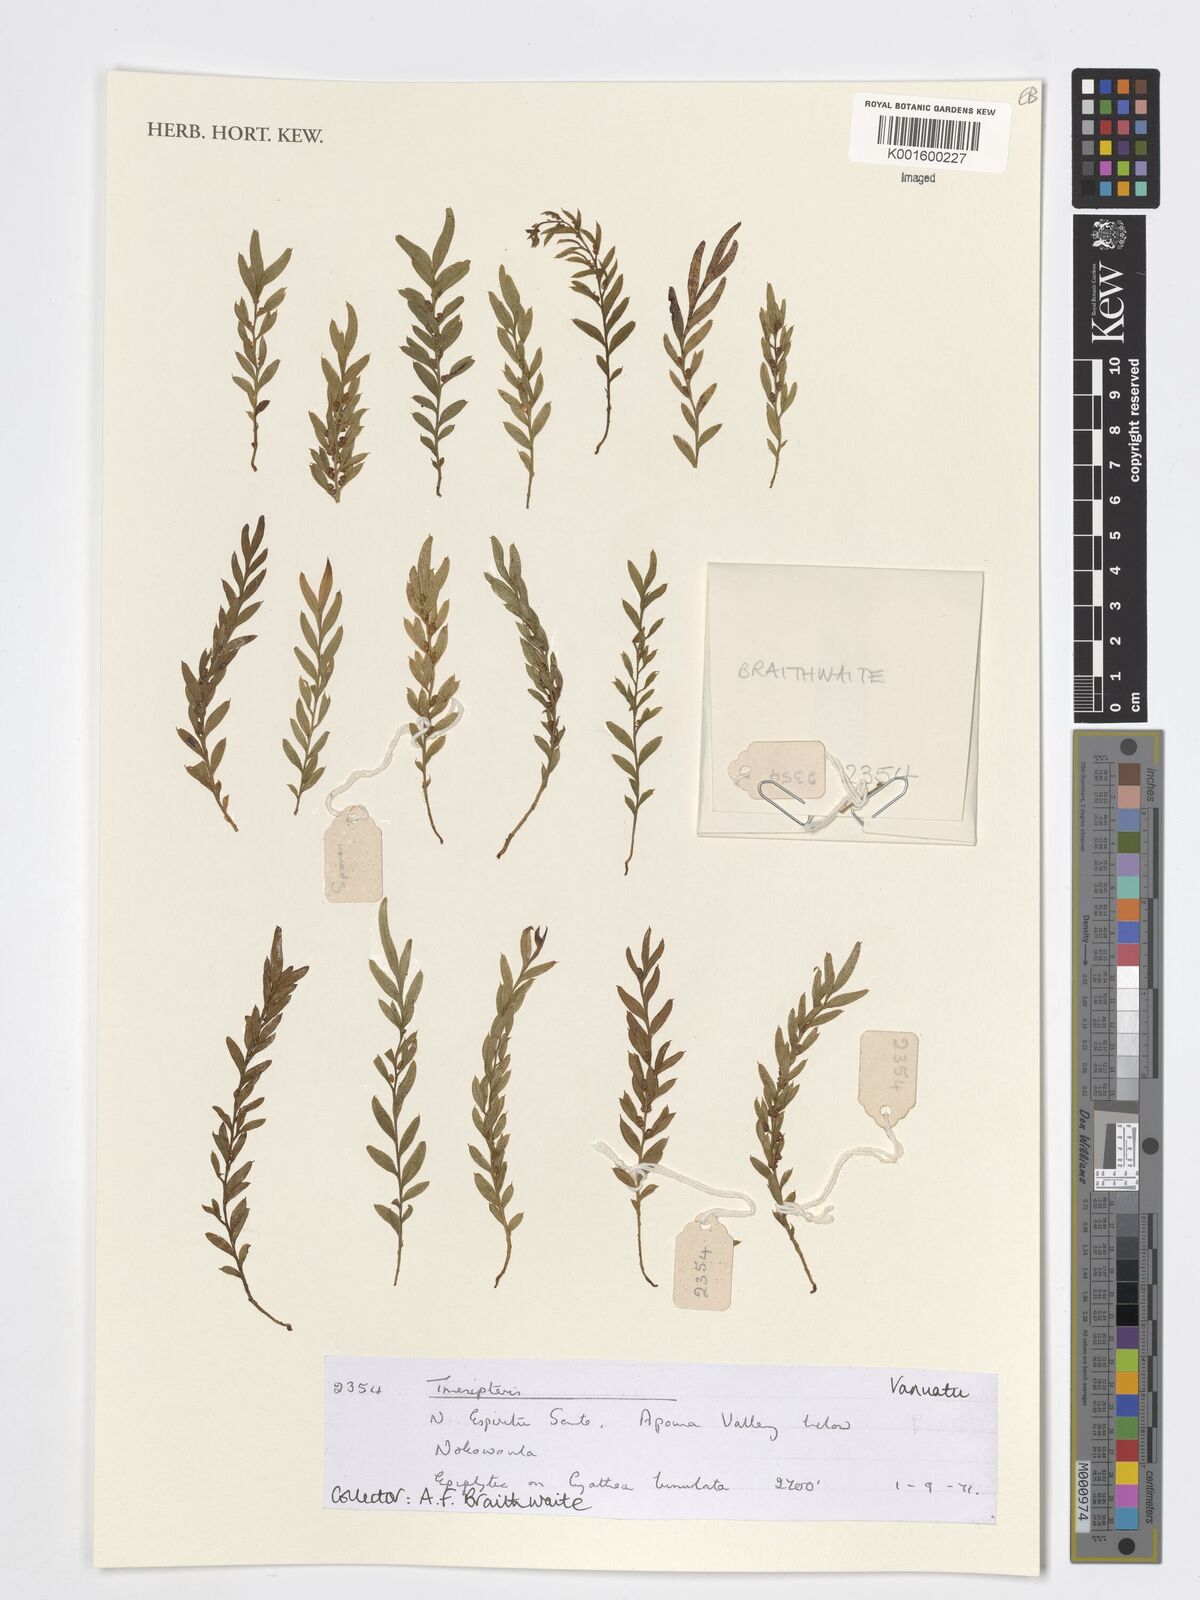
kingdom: Plantae
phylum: Tracheophyta
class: Polypodiopsida
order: Psilotales
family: Psilotaceae
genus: Tmesipteris
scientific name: Tmesipteris
